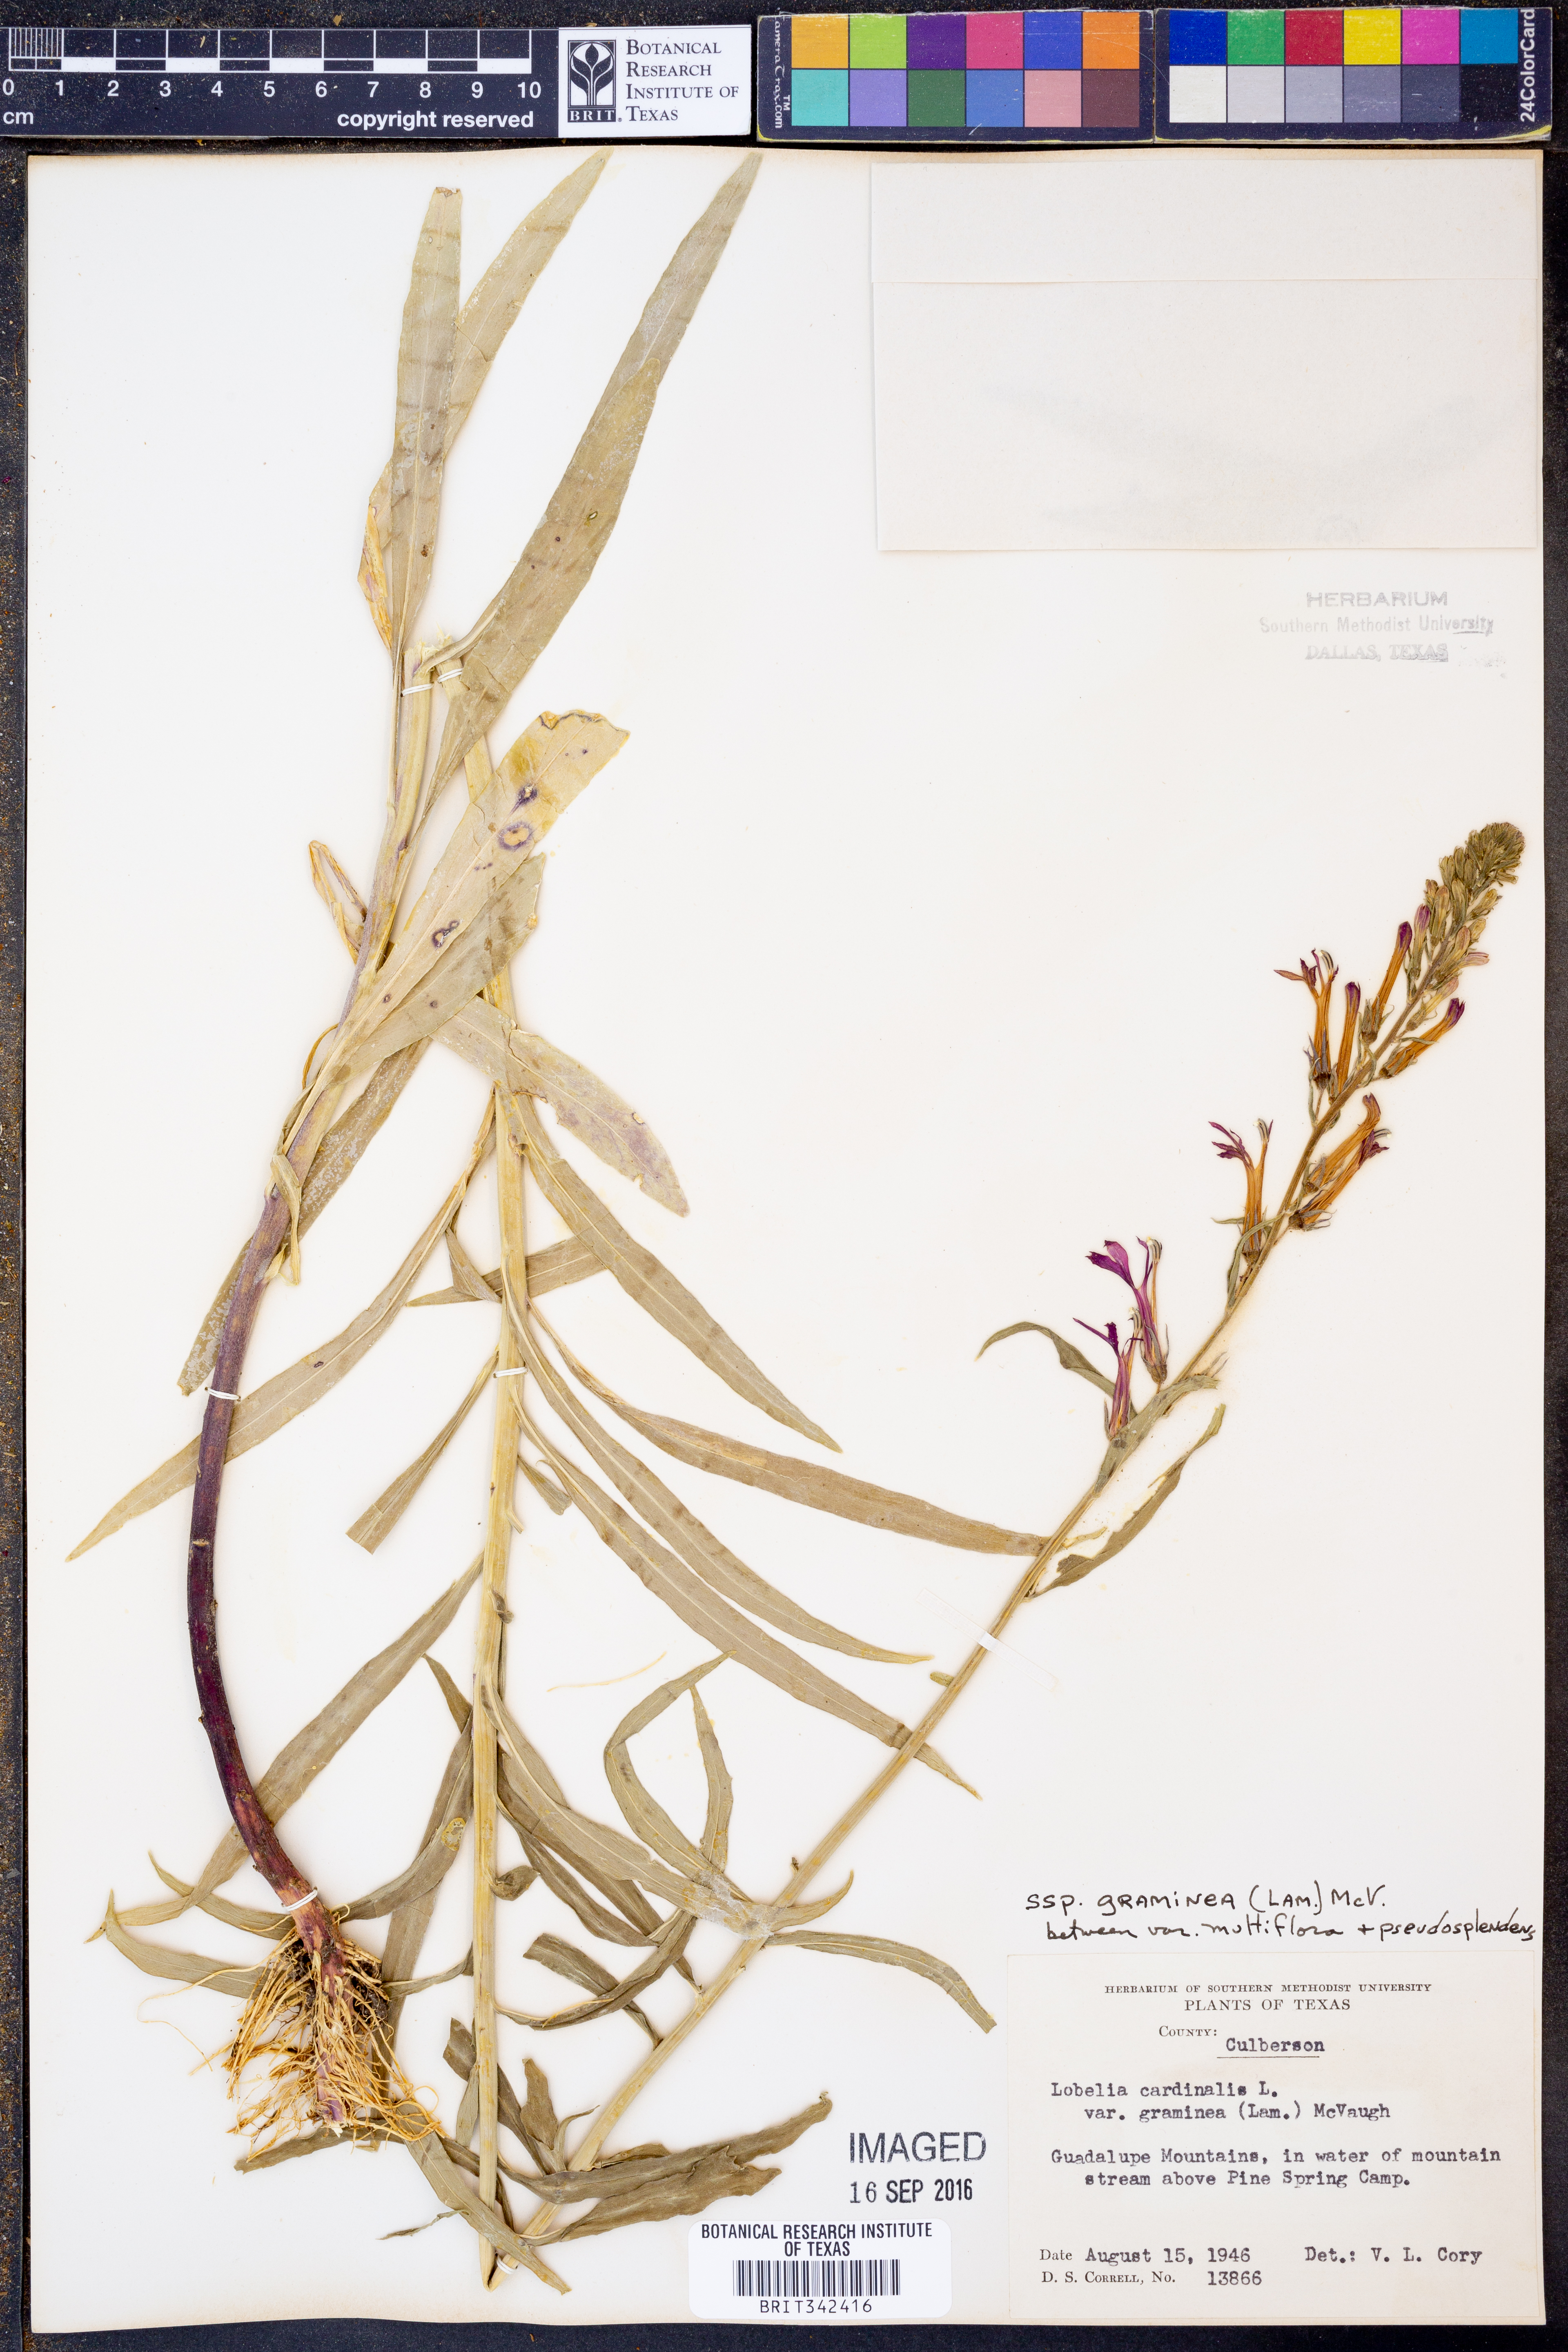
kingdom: Plantae
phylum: Tracheophyta
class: Magnoliopsida
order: Asterales
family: Campanulaceae
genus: Lobelia
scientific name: Lobelia cardinalis
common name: Cardinal flower
